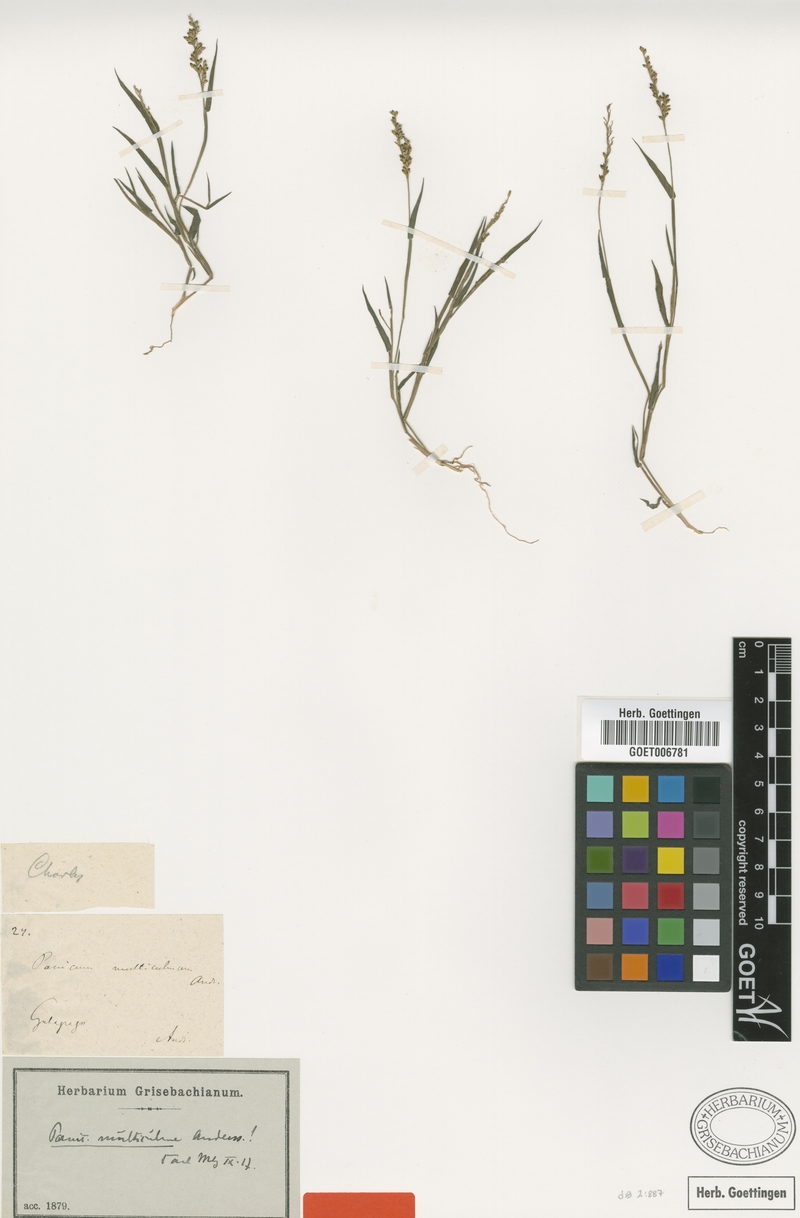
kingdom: Plantae
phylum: Tracheophyta
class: Liliopsida
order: Poales
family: Poaceae
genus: Urochloa
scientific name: Urochloa multiculma
